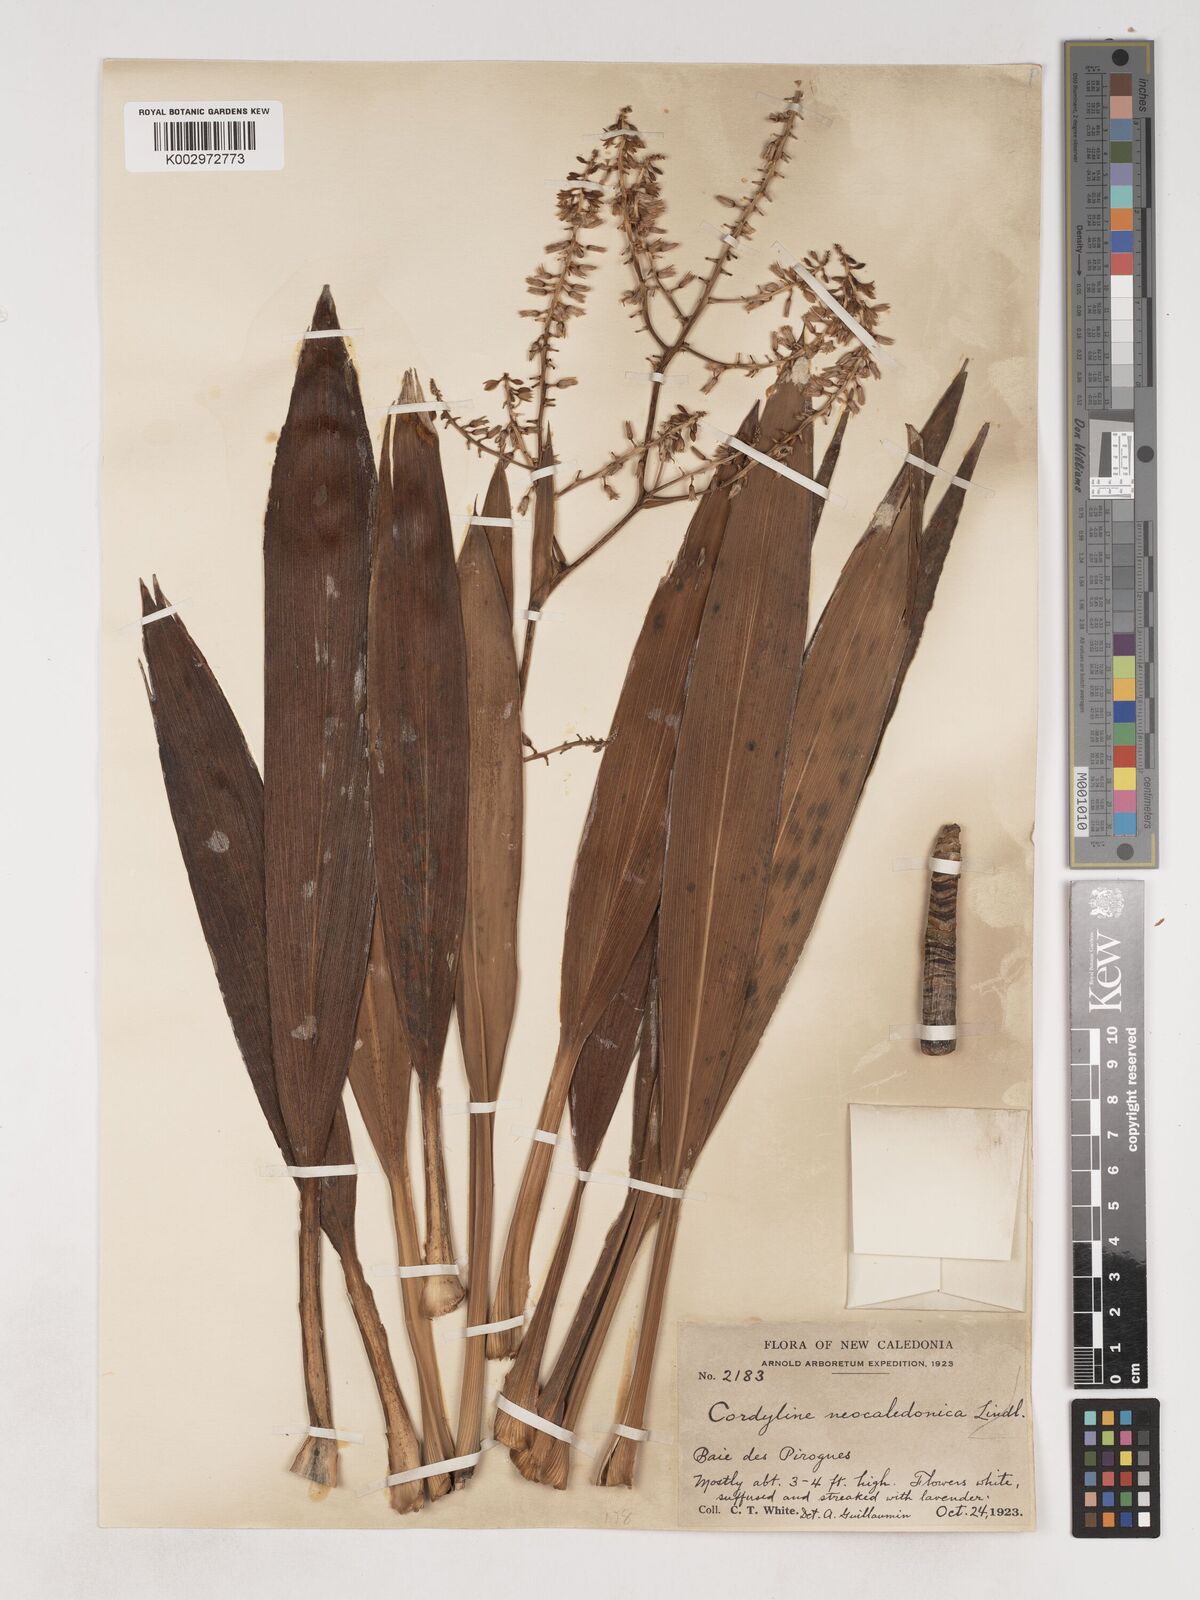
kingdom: Plantae
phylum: Tracheophyta
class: Liliopsida
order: Asparagales
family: Asparagaceae
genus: Cordyline
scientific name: Cordyline neocaledonica
